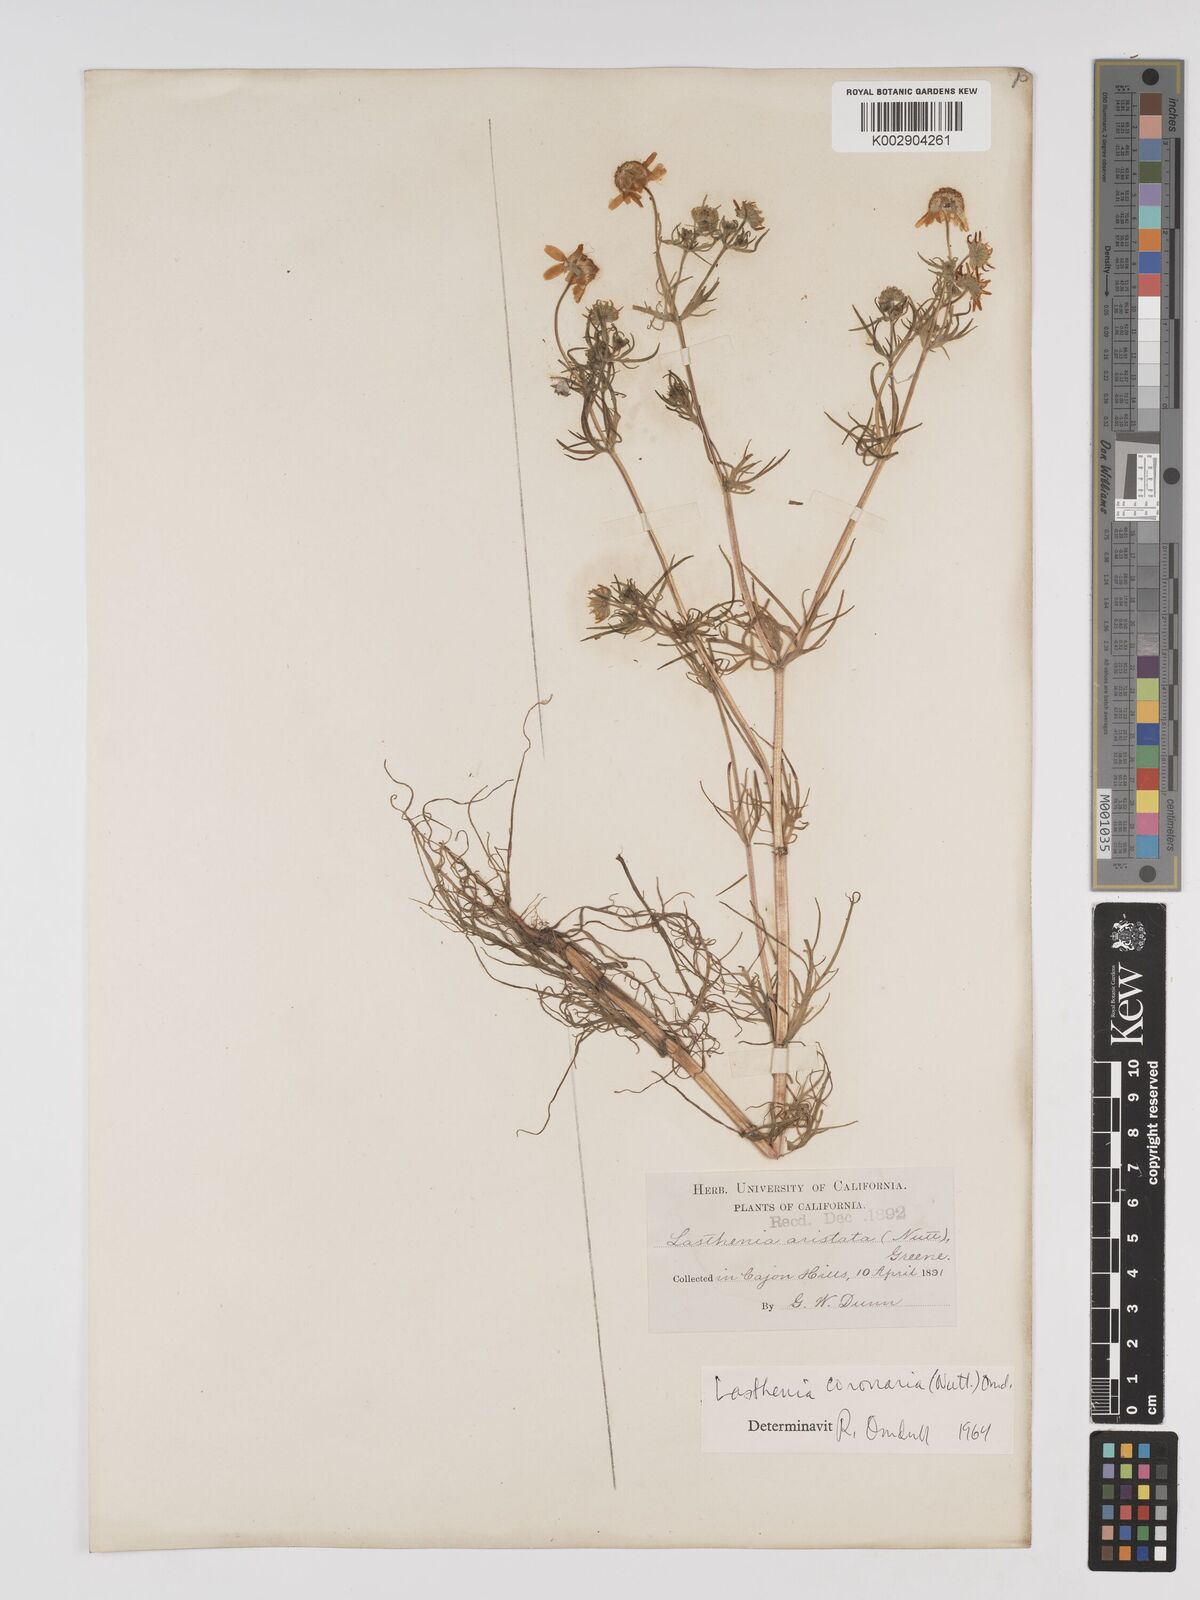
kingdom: Plantae
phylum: Tracheophyta
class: Magnoliopsida
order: Asterales
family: Asteraceae
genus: Lasthenia
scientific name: Lasthenia coronaria
